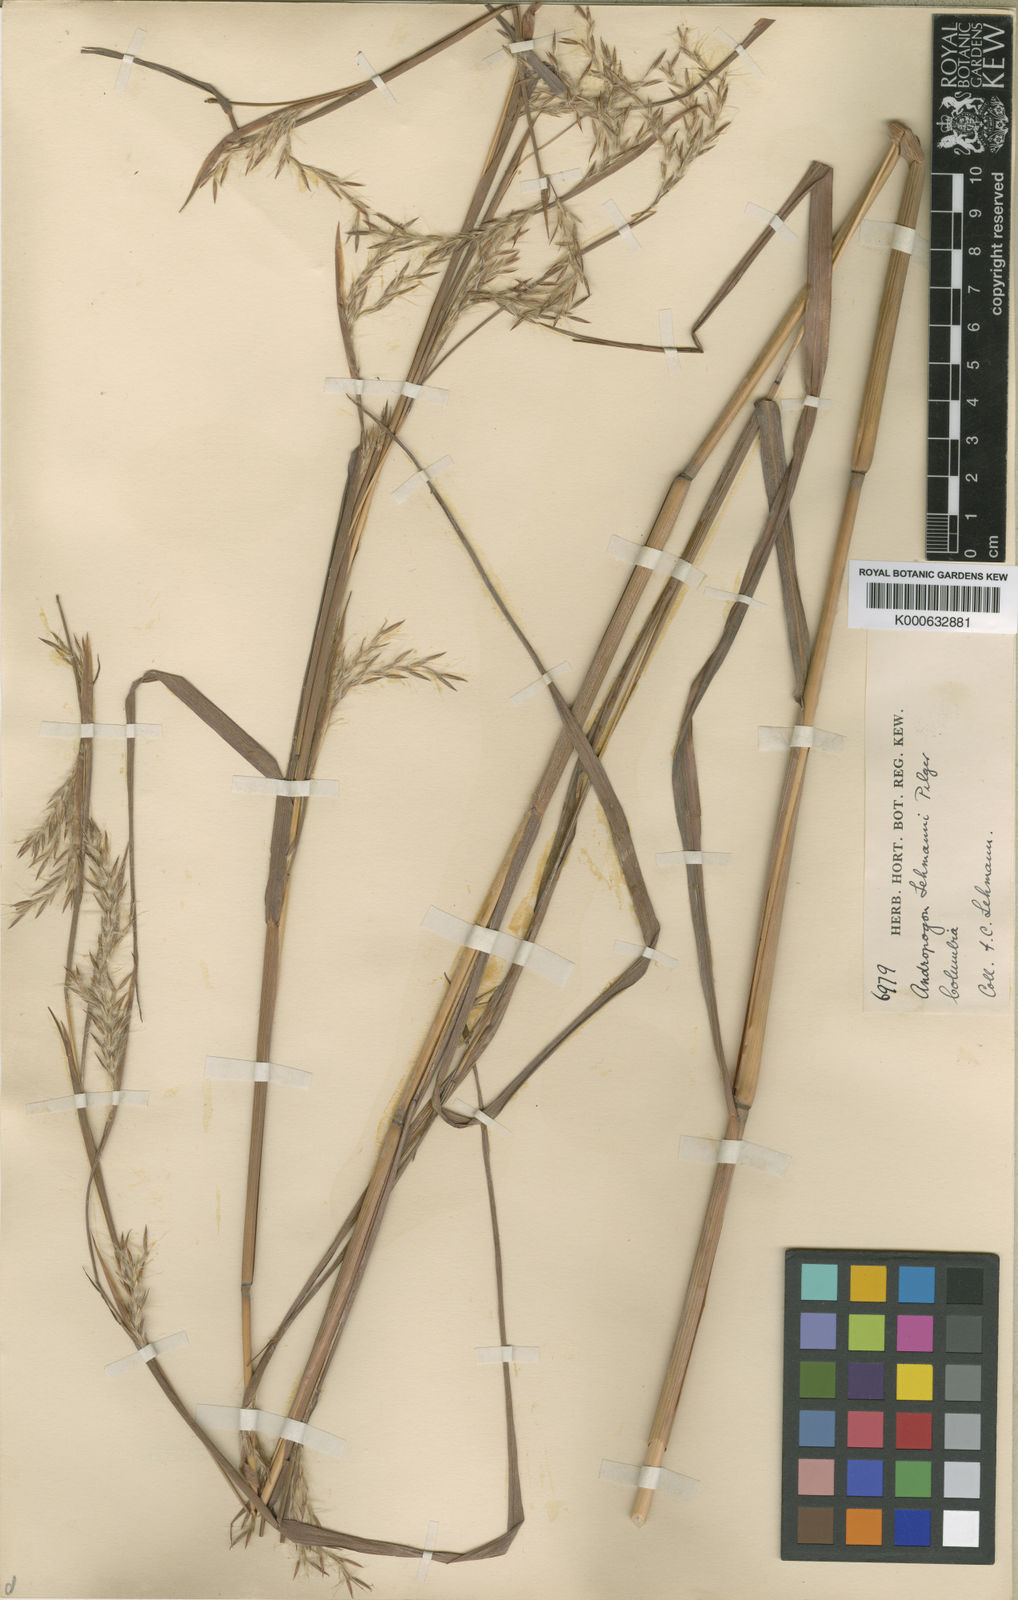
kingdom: Plantae
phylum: Tracheophyta
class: Liliopsida
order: Poales
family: Poaceae
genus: Andropogon
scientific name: Andropogon lehmannii
